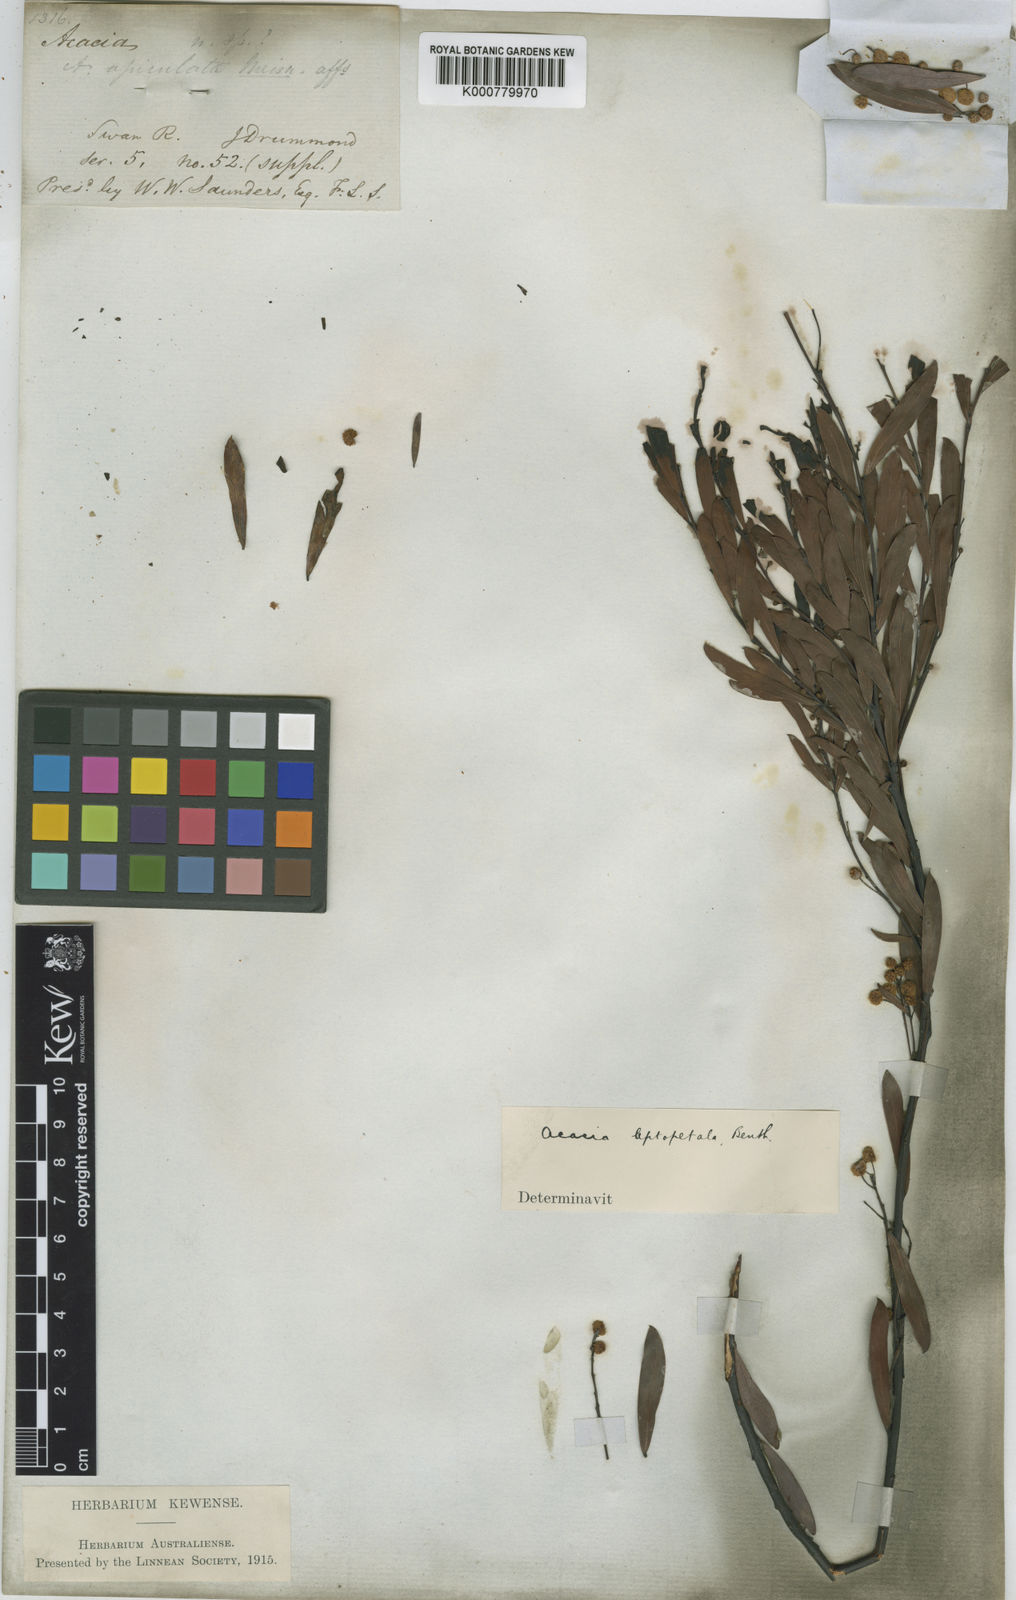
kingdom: Plantae
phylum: Tracheophyta
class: Magnoliopsida
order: Fabales
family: Fabaceae
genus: Acacia
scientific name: Acacia leptopetala
